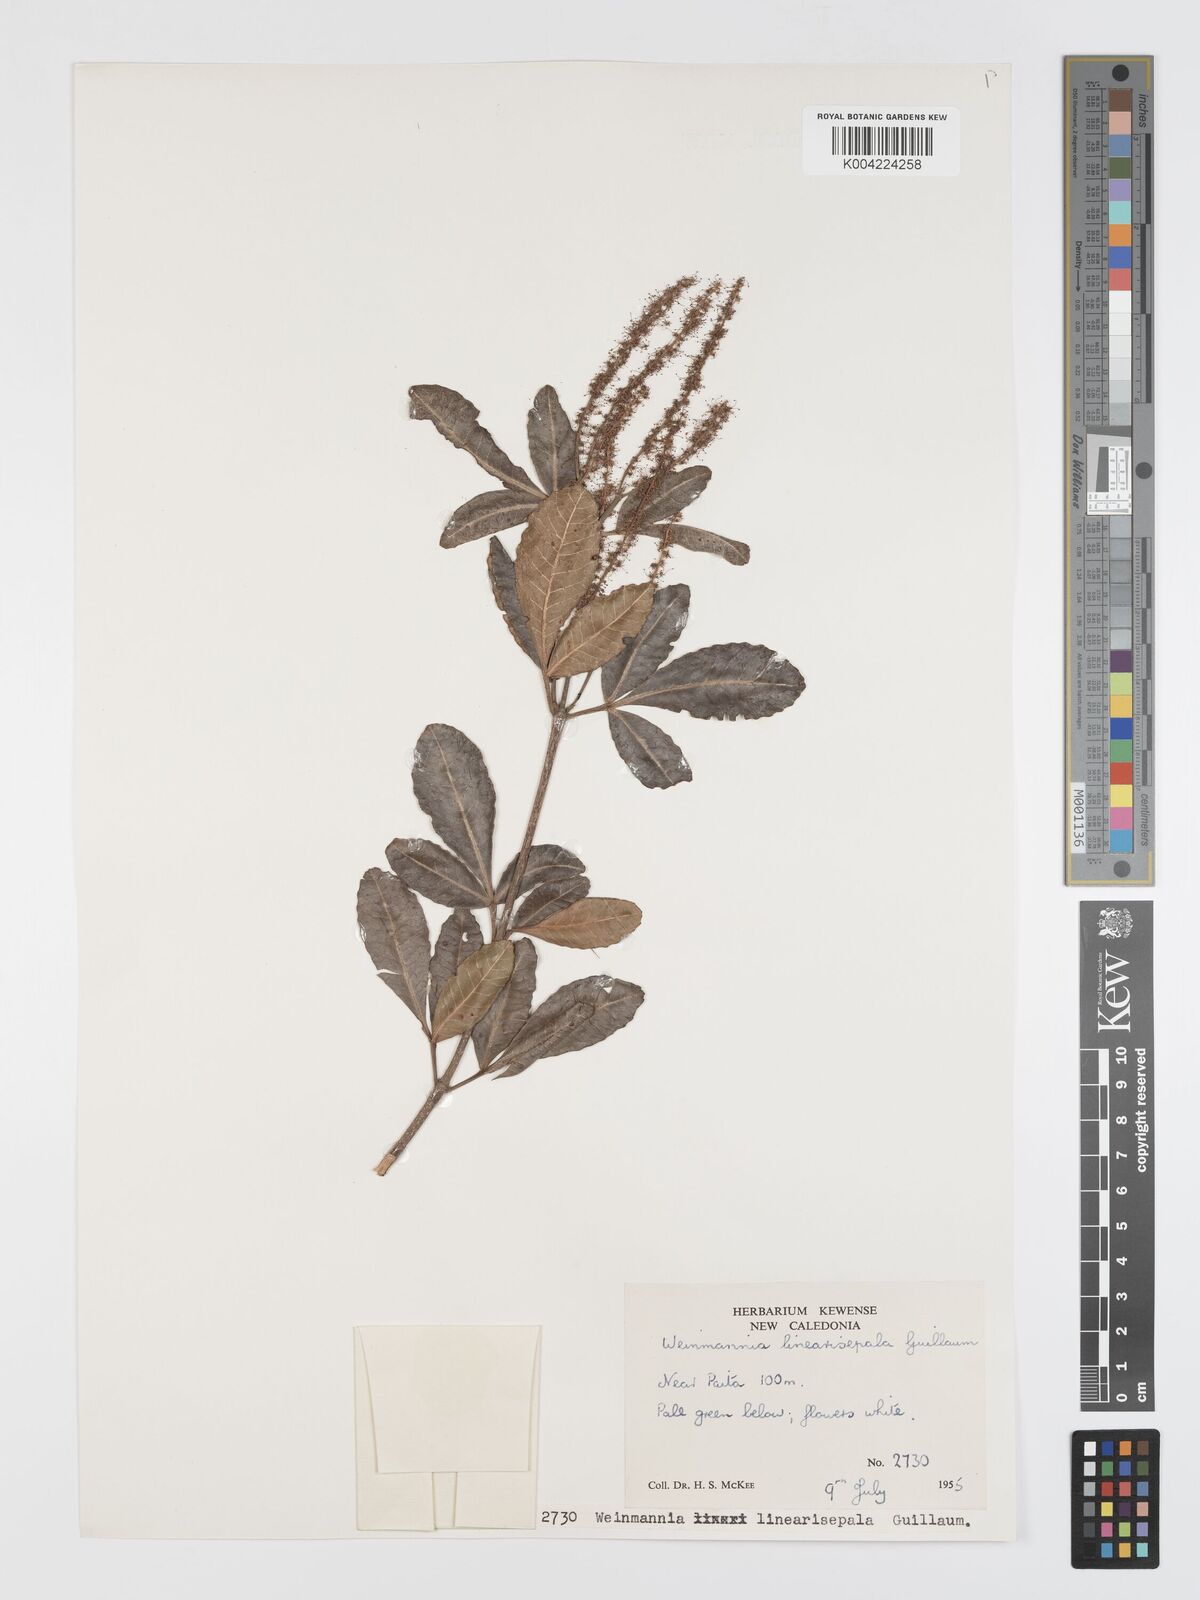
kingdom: Plantae
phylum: Tracheophyta
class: Magnoliopsida
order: Oxalidales
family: Cunoniaceae
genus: Cunonia
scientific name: Cunonia linearisepala
